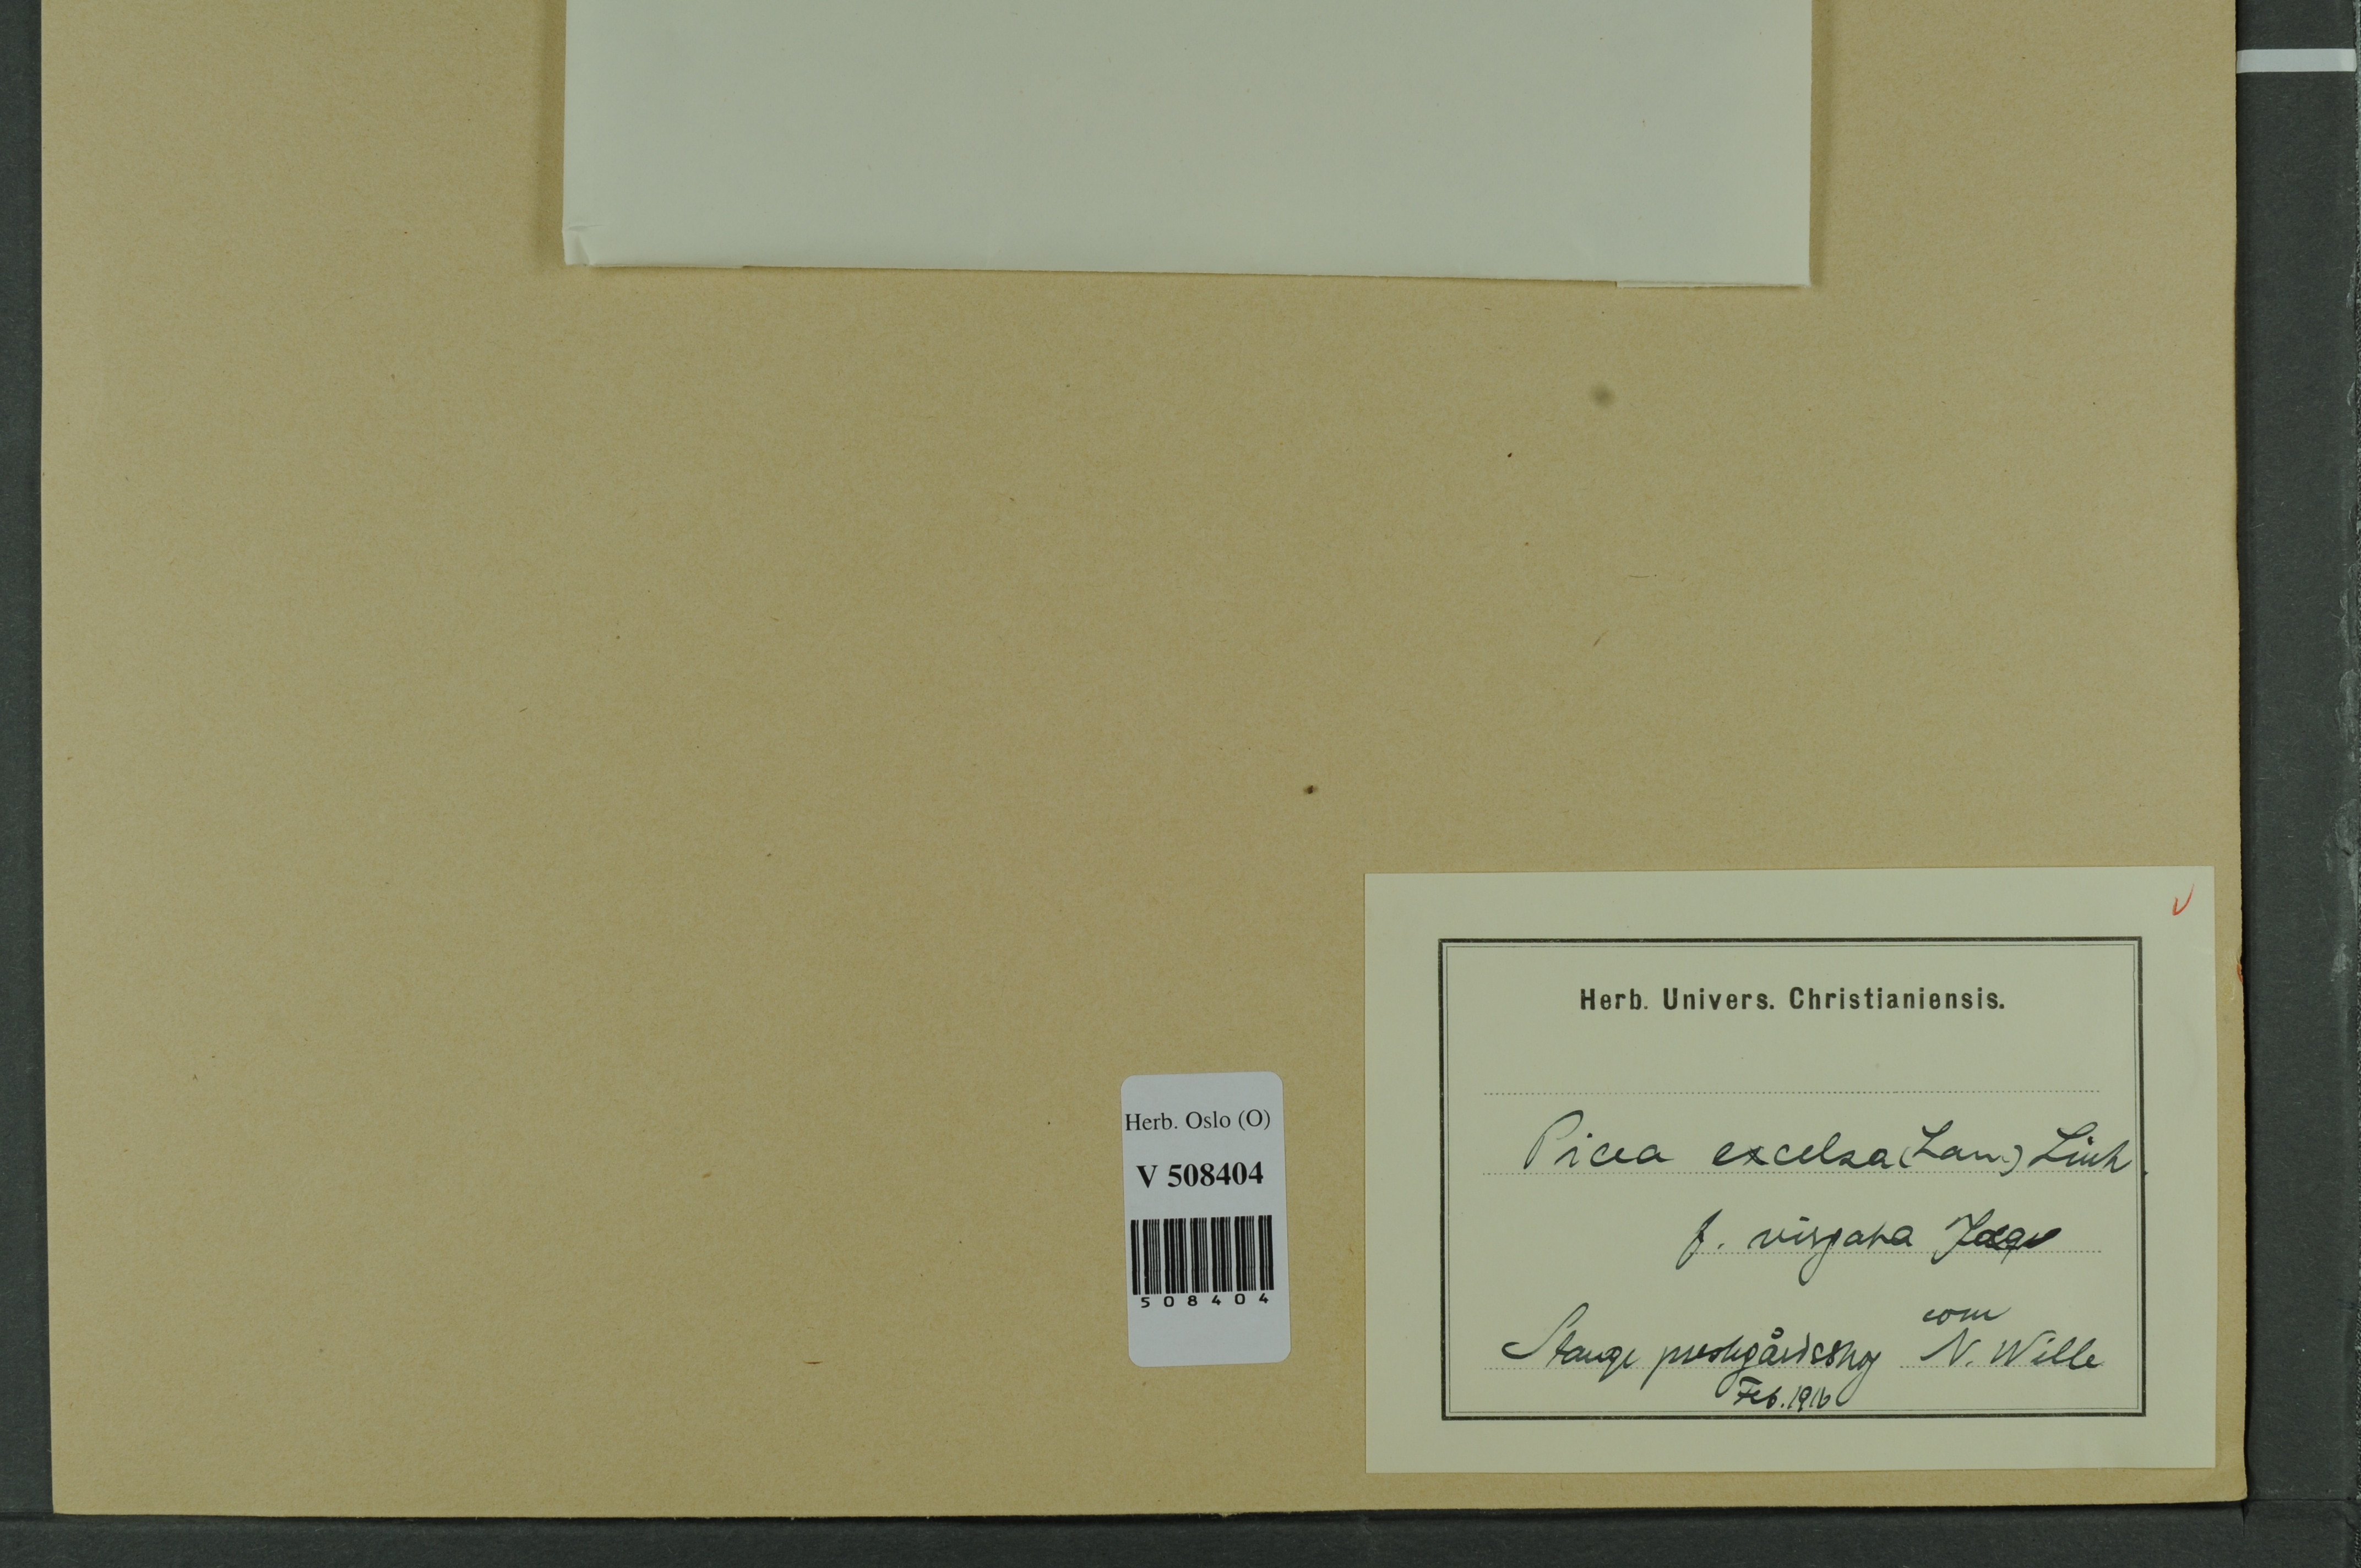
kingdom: Plantae
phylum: Tracheophyta
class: Pinopsida
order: Pinales
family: Pinaceae
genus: Picea
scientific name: Picea abies
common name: Norway spruce
